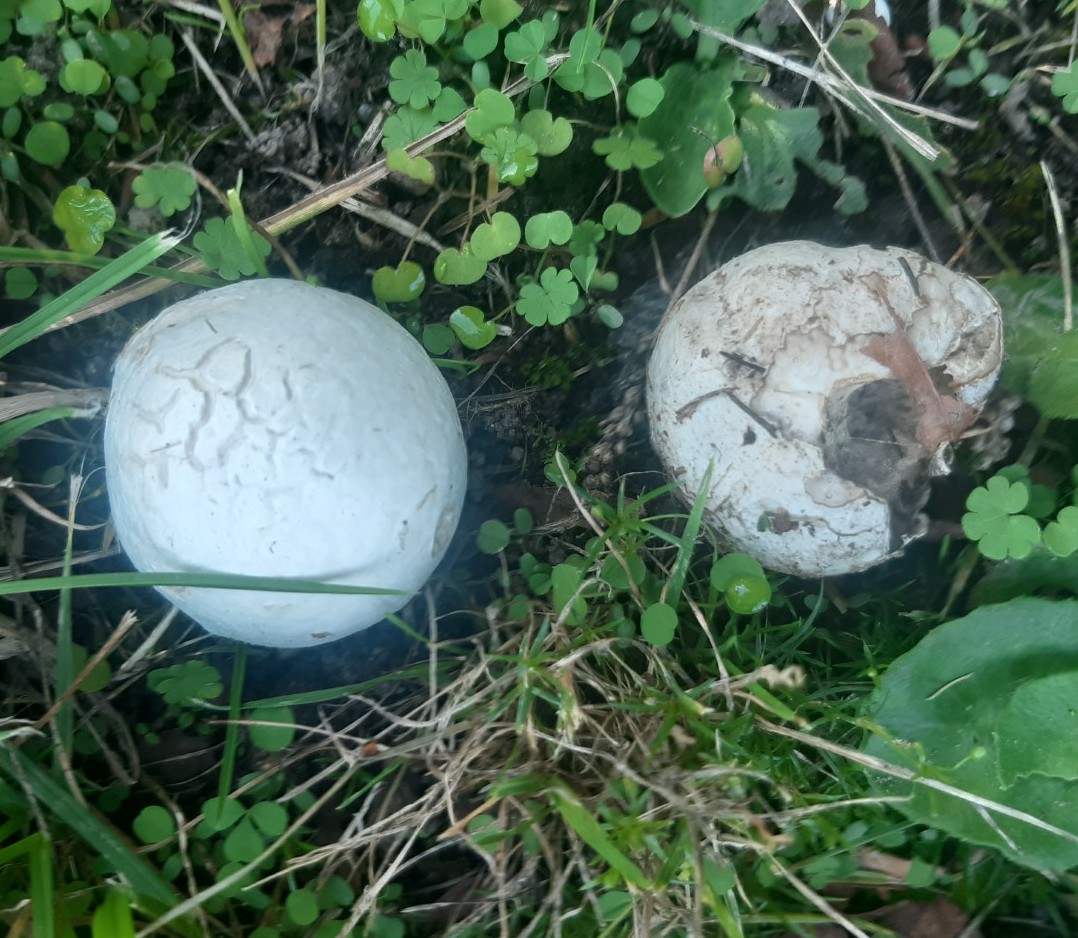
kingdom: Fungi
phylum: Basidiomycota
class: Agaricomycetes
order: Agaricales
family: Lycoperdaceae
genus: Bovista
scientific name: Bovista plumbea
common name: blygrå bovist
